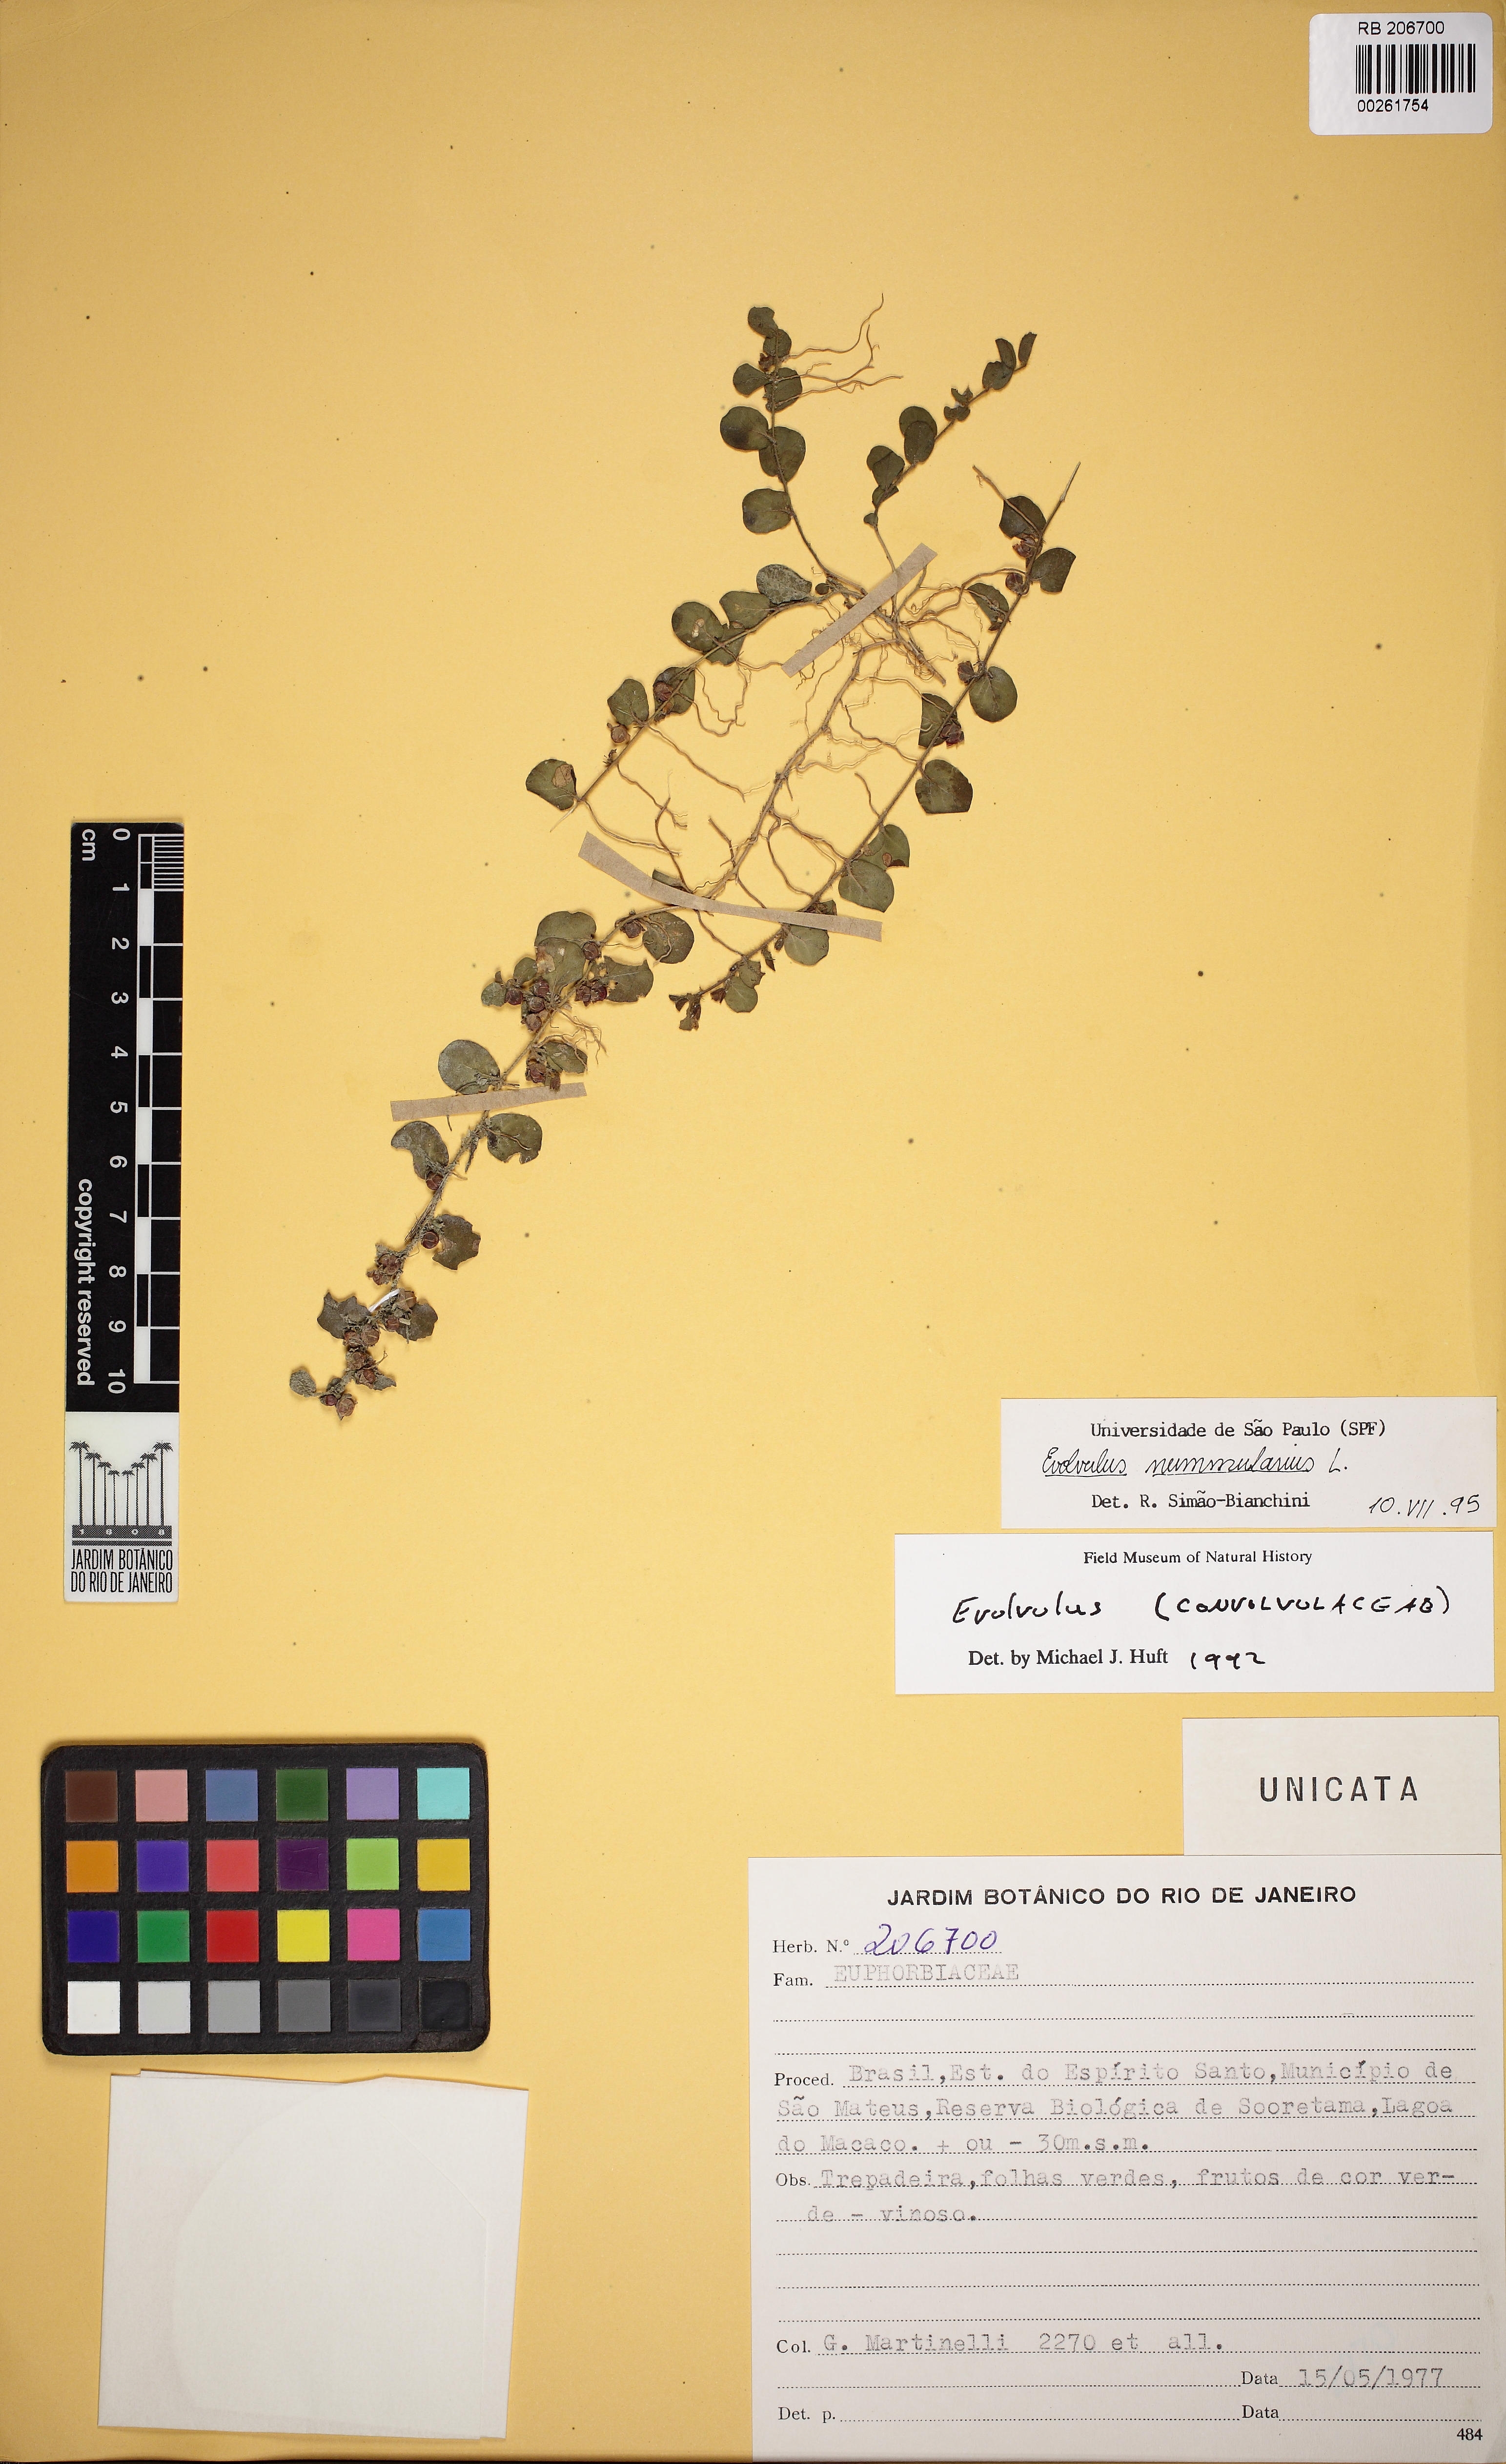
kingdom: Plantae
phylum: Tracheophyta
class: Magnoliopsida
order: Solanales
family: Convolvulaceae
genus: Evolvulus
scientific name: Evolvulus nummularius
